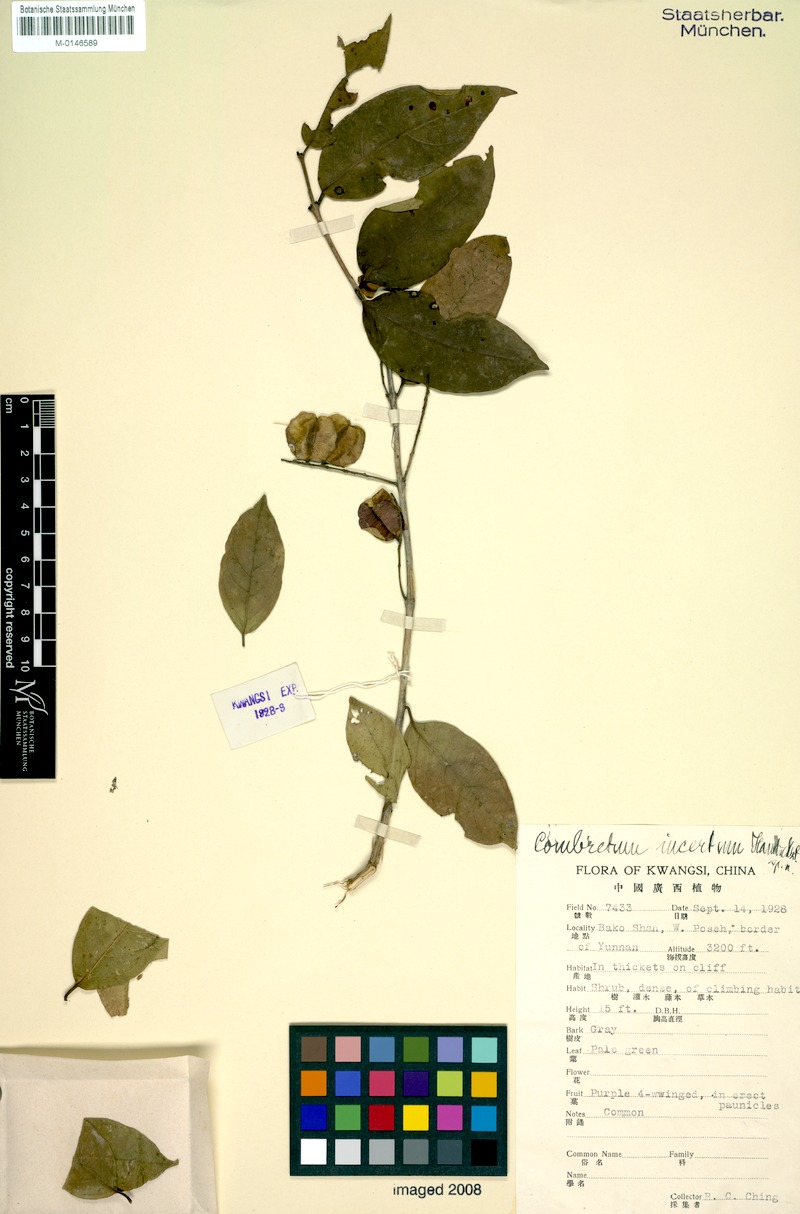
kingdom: Plantae
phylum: Tracheophyta
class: Magnoliopsida
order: Myrtales
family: Combretaceae
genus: Combretum
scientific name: Combretum wallichii
